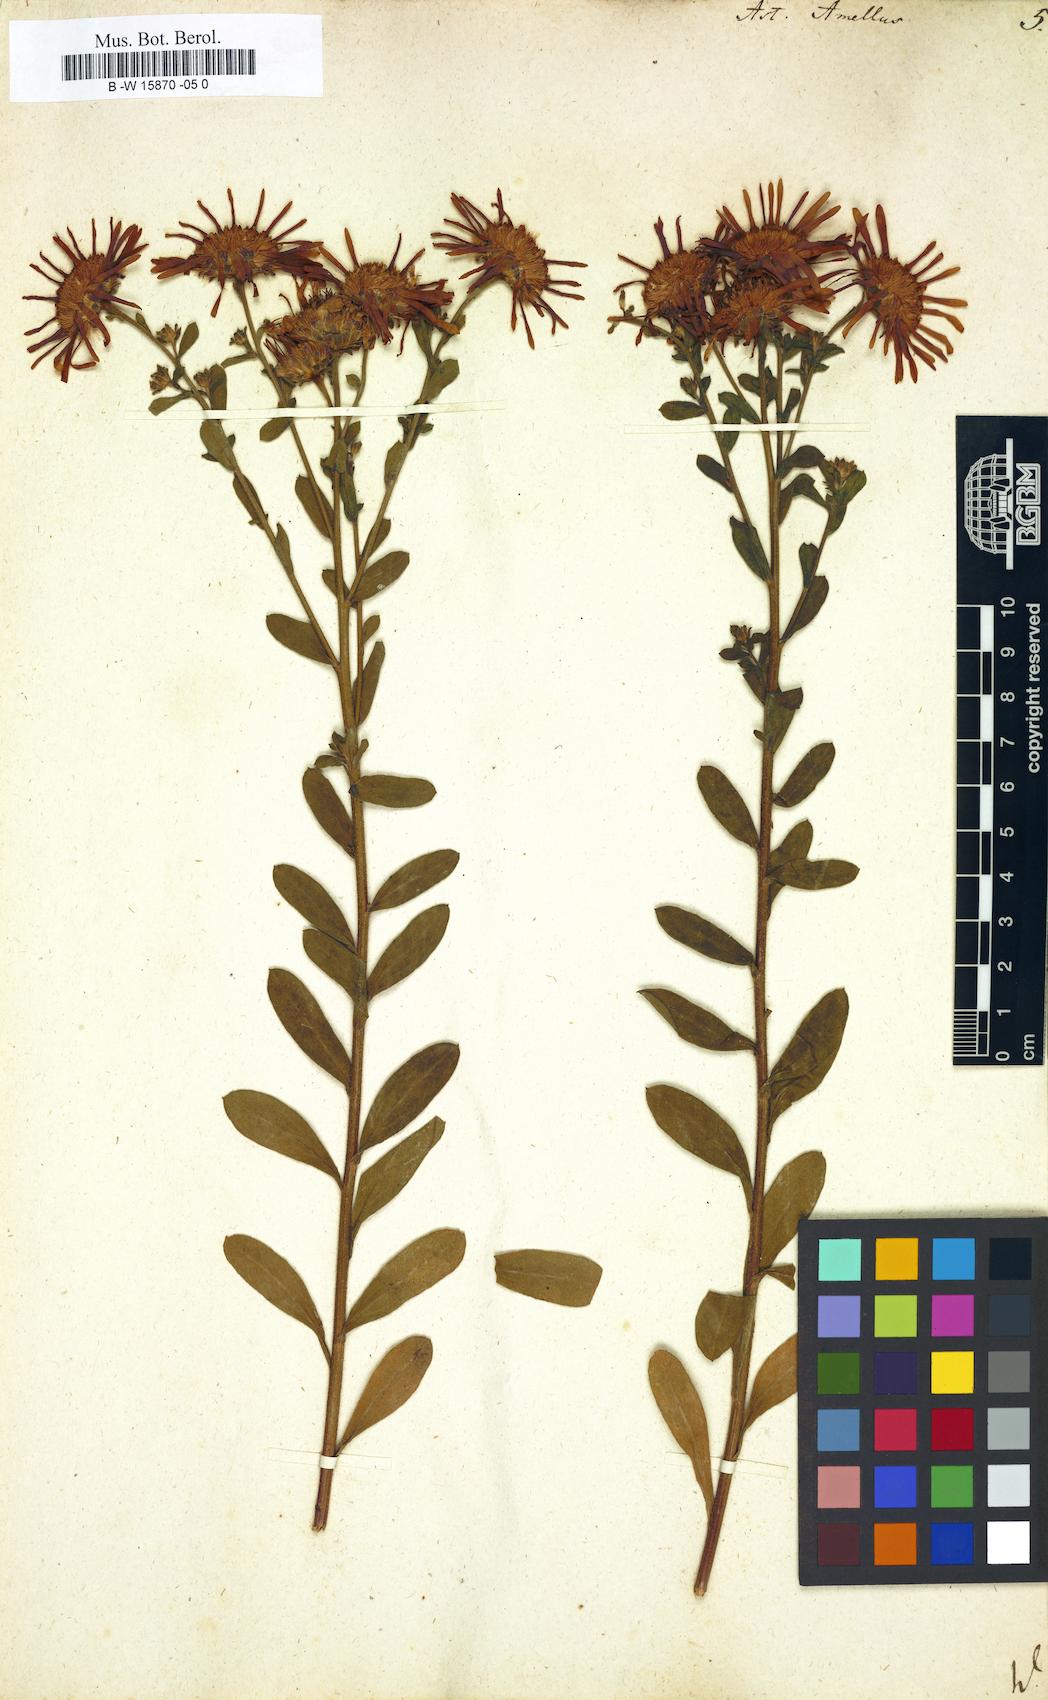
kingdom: Plantae
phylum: Tracheophyta
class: Magnoliopsida
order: Asterales
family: Asteraceae
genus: Aster
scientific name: Aster amellus
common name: European michaelmas daisy
